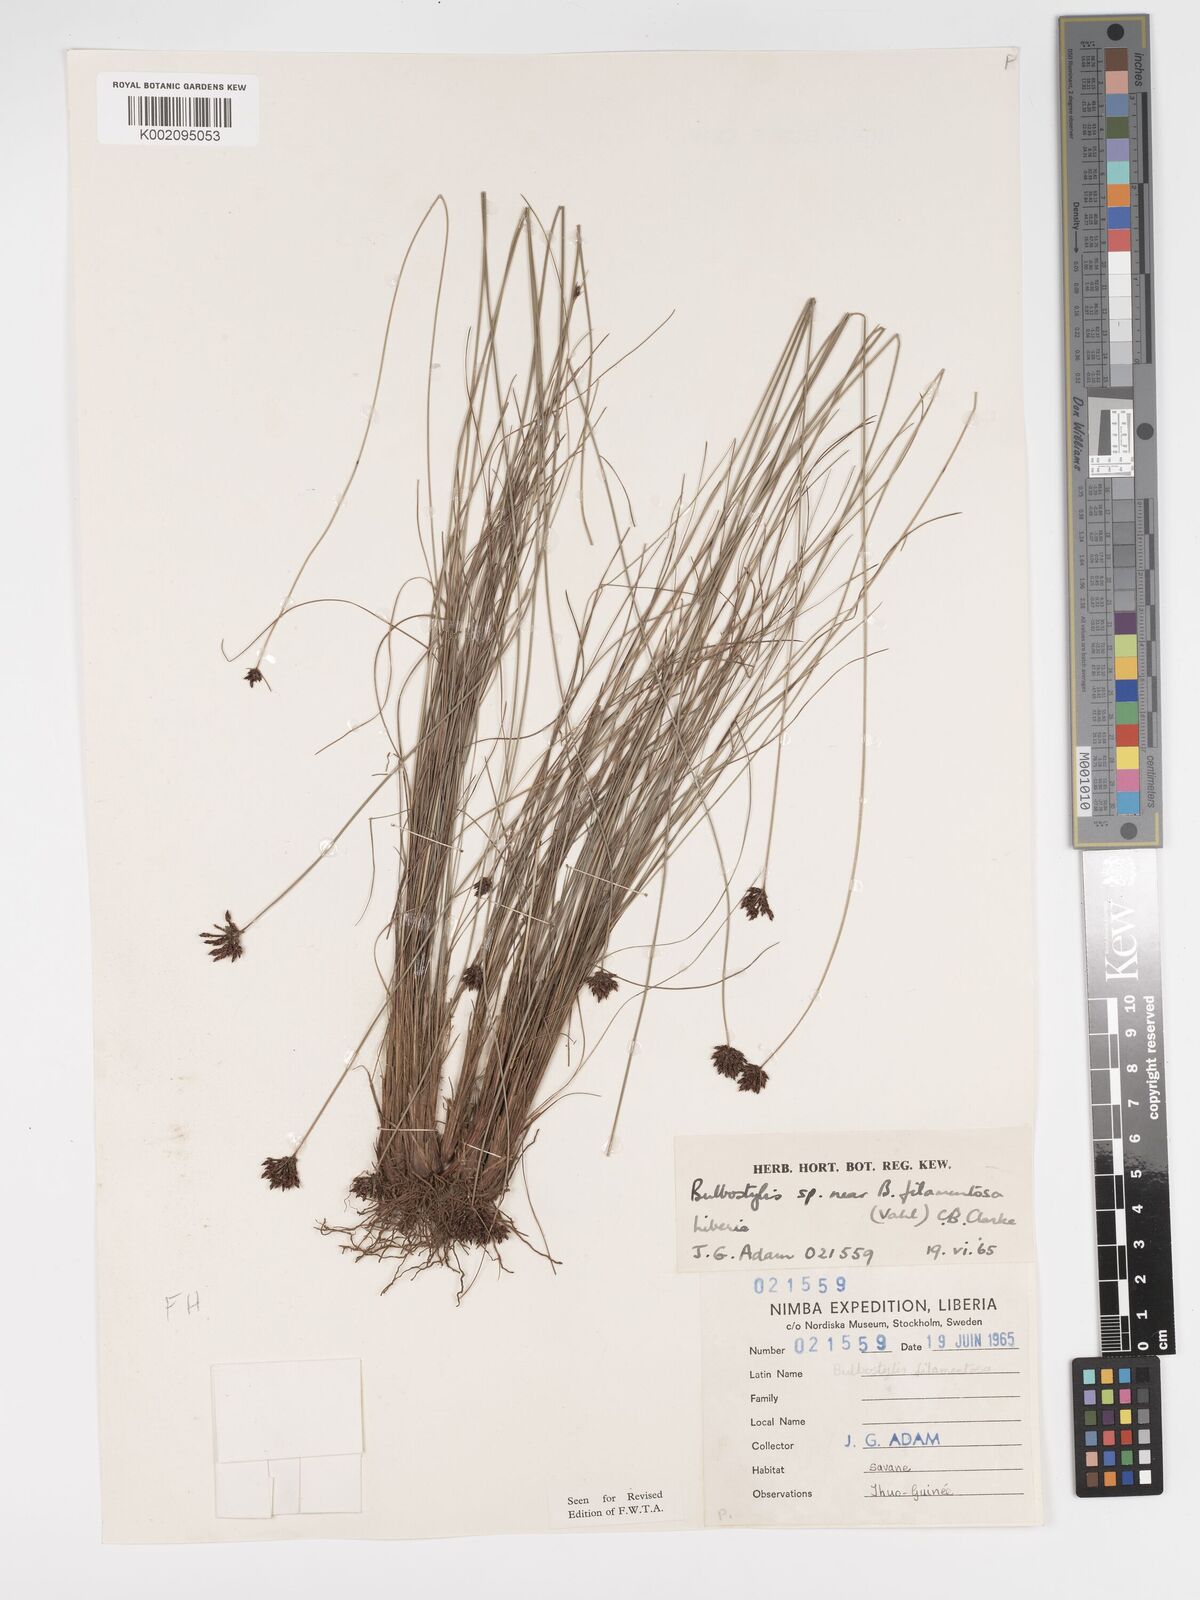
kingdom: Plantae
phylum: Tracheophyta
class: Liliopsida
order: Poales
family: Cyperaceae
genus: Bulbostylis
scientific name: Bulbostylis
